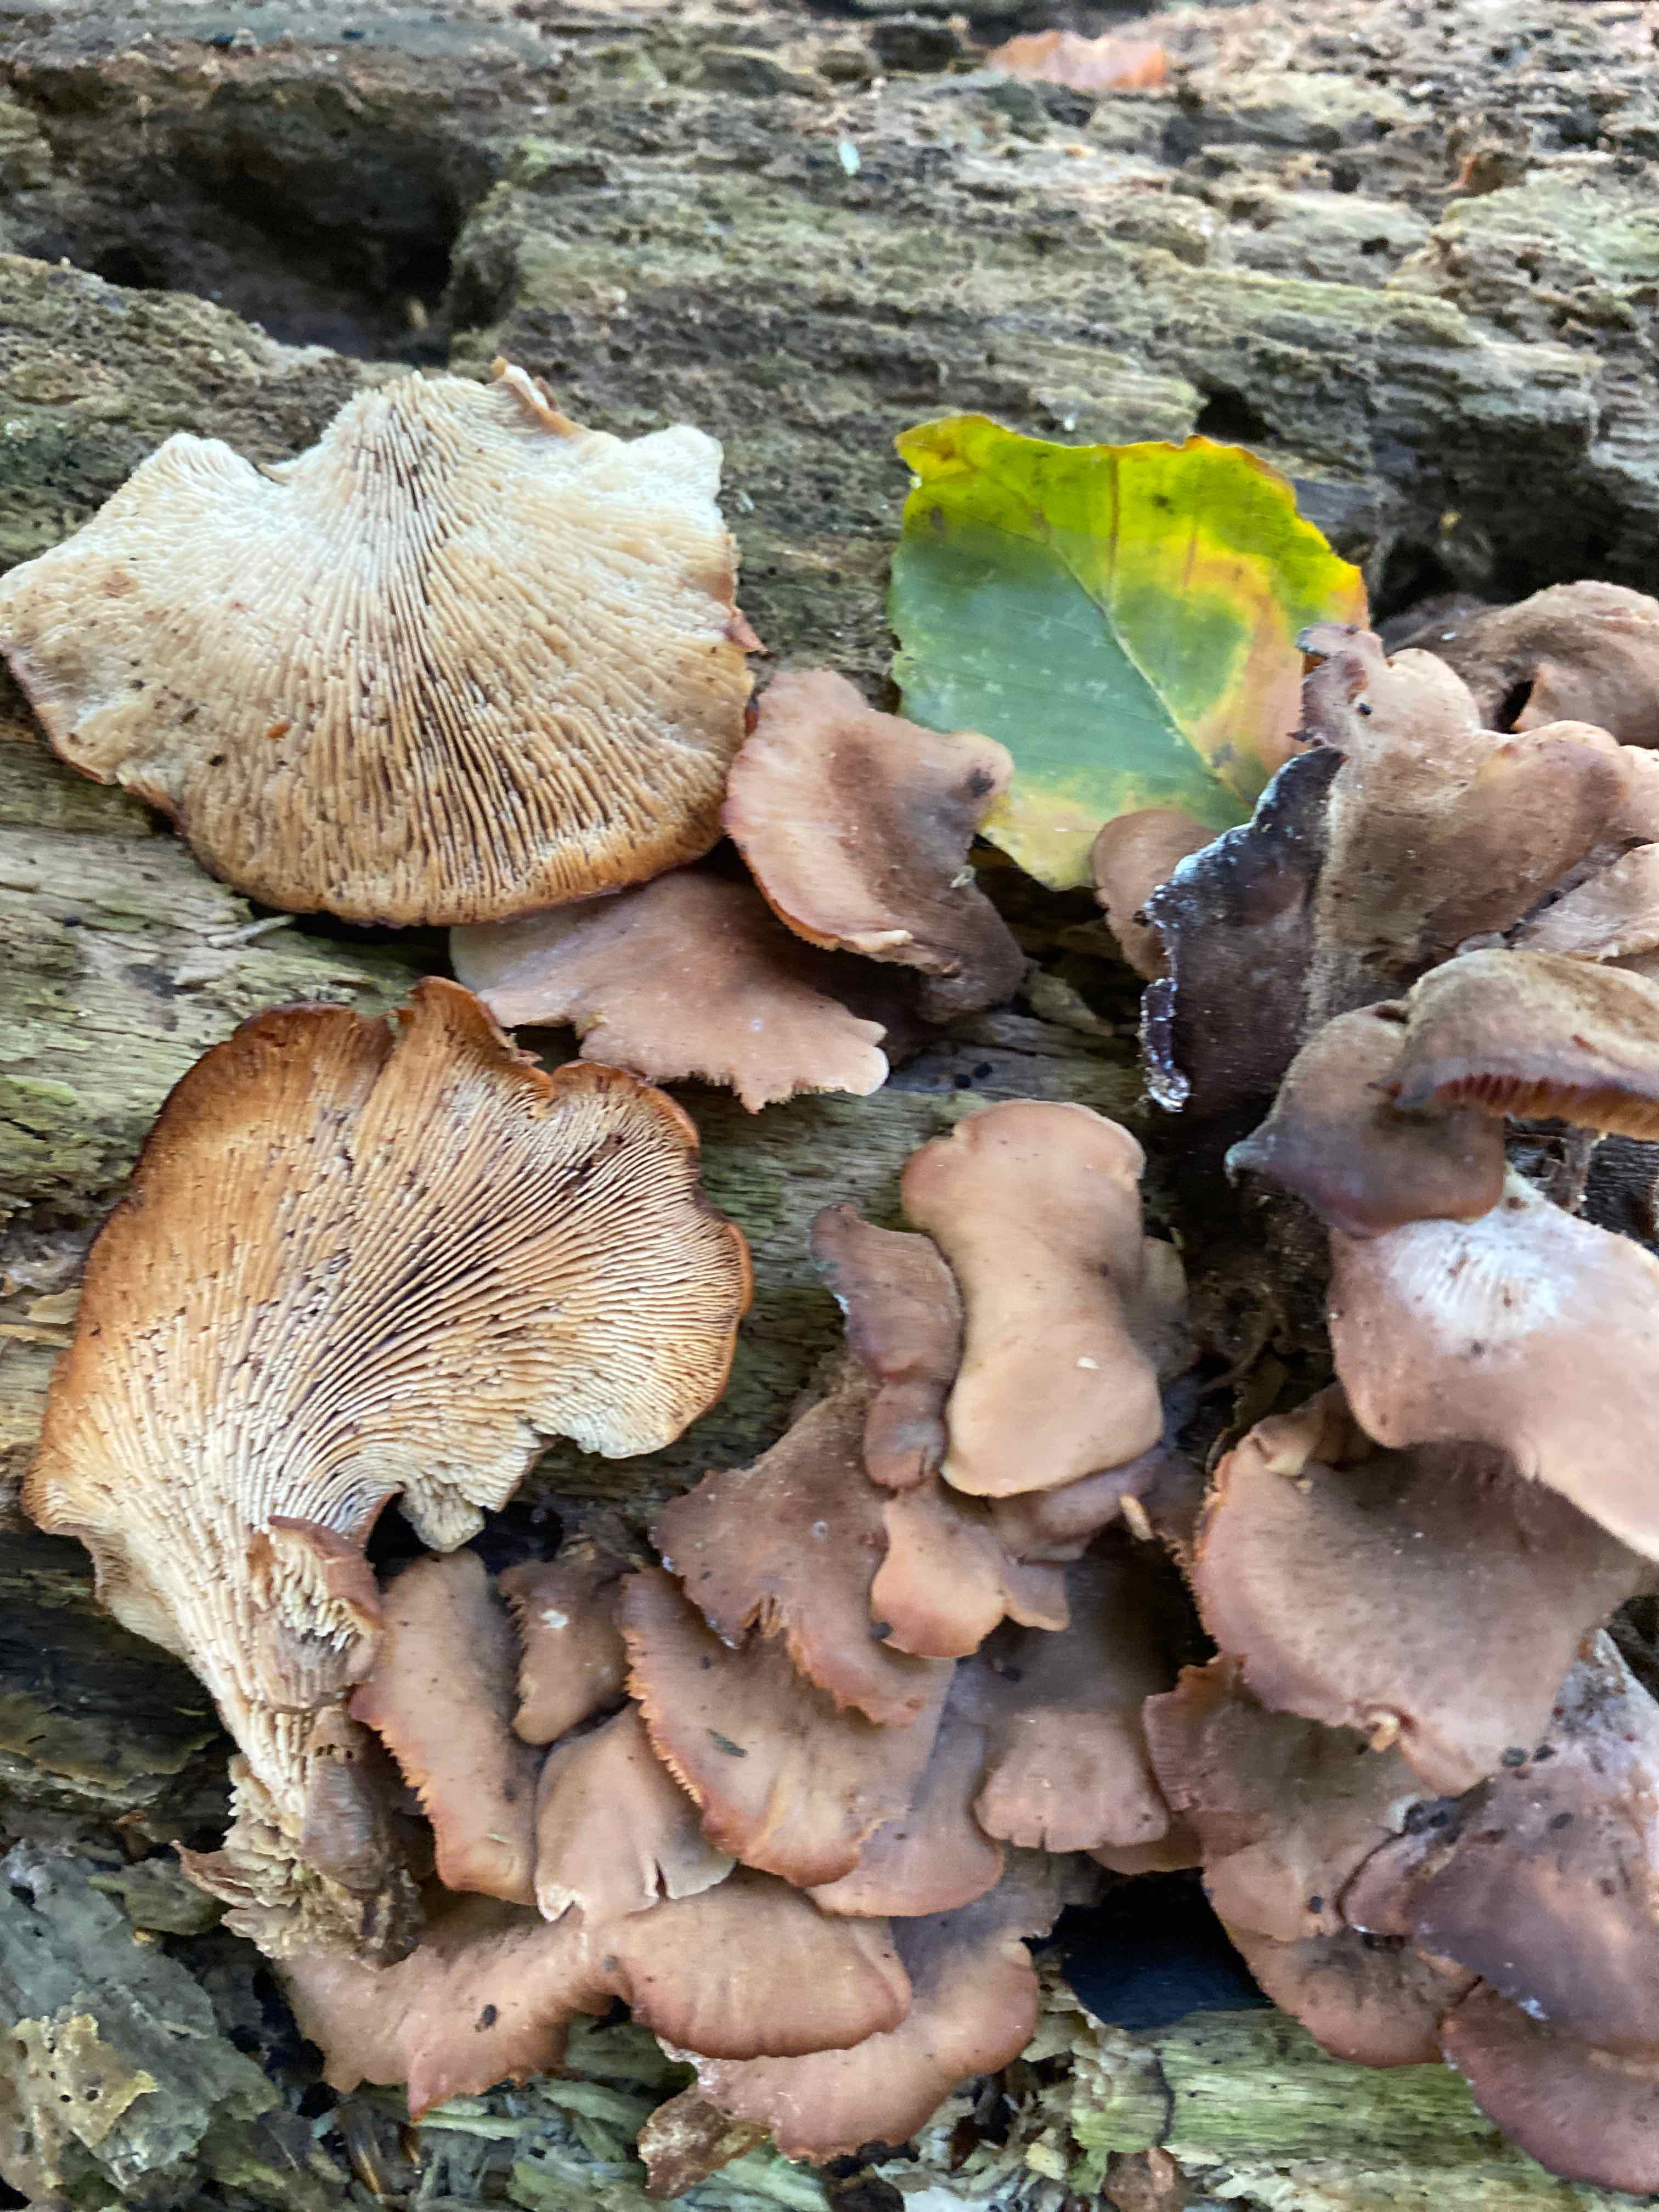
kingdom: Fungi
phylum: Basidiomycota
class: Agaricomycetes
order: Russulales
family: Auriscalpiaceae
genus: Lentinellus
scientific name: Lentinellus cochleatus
